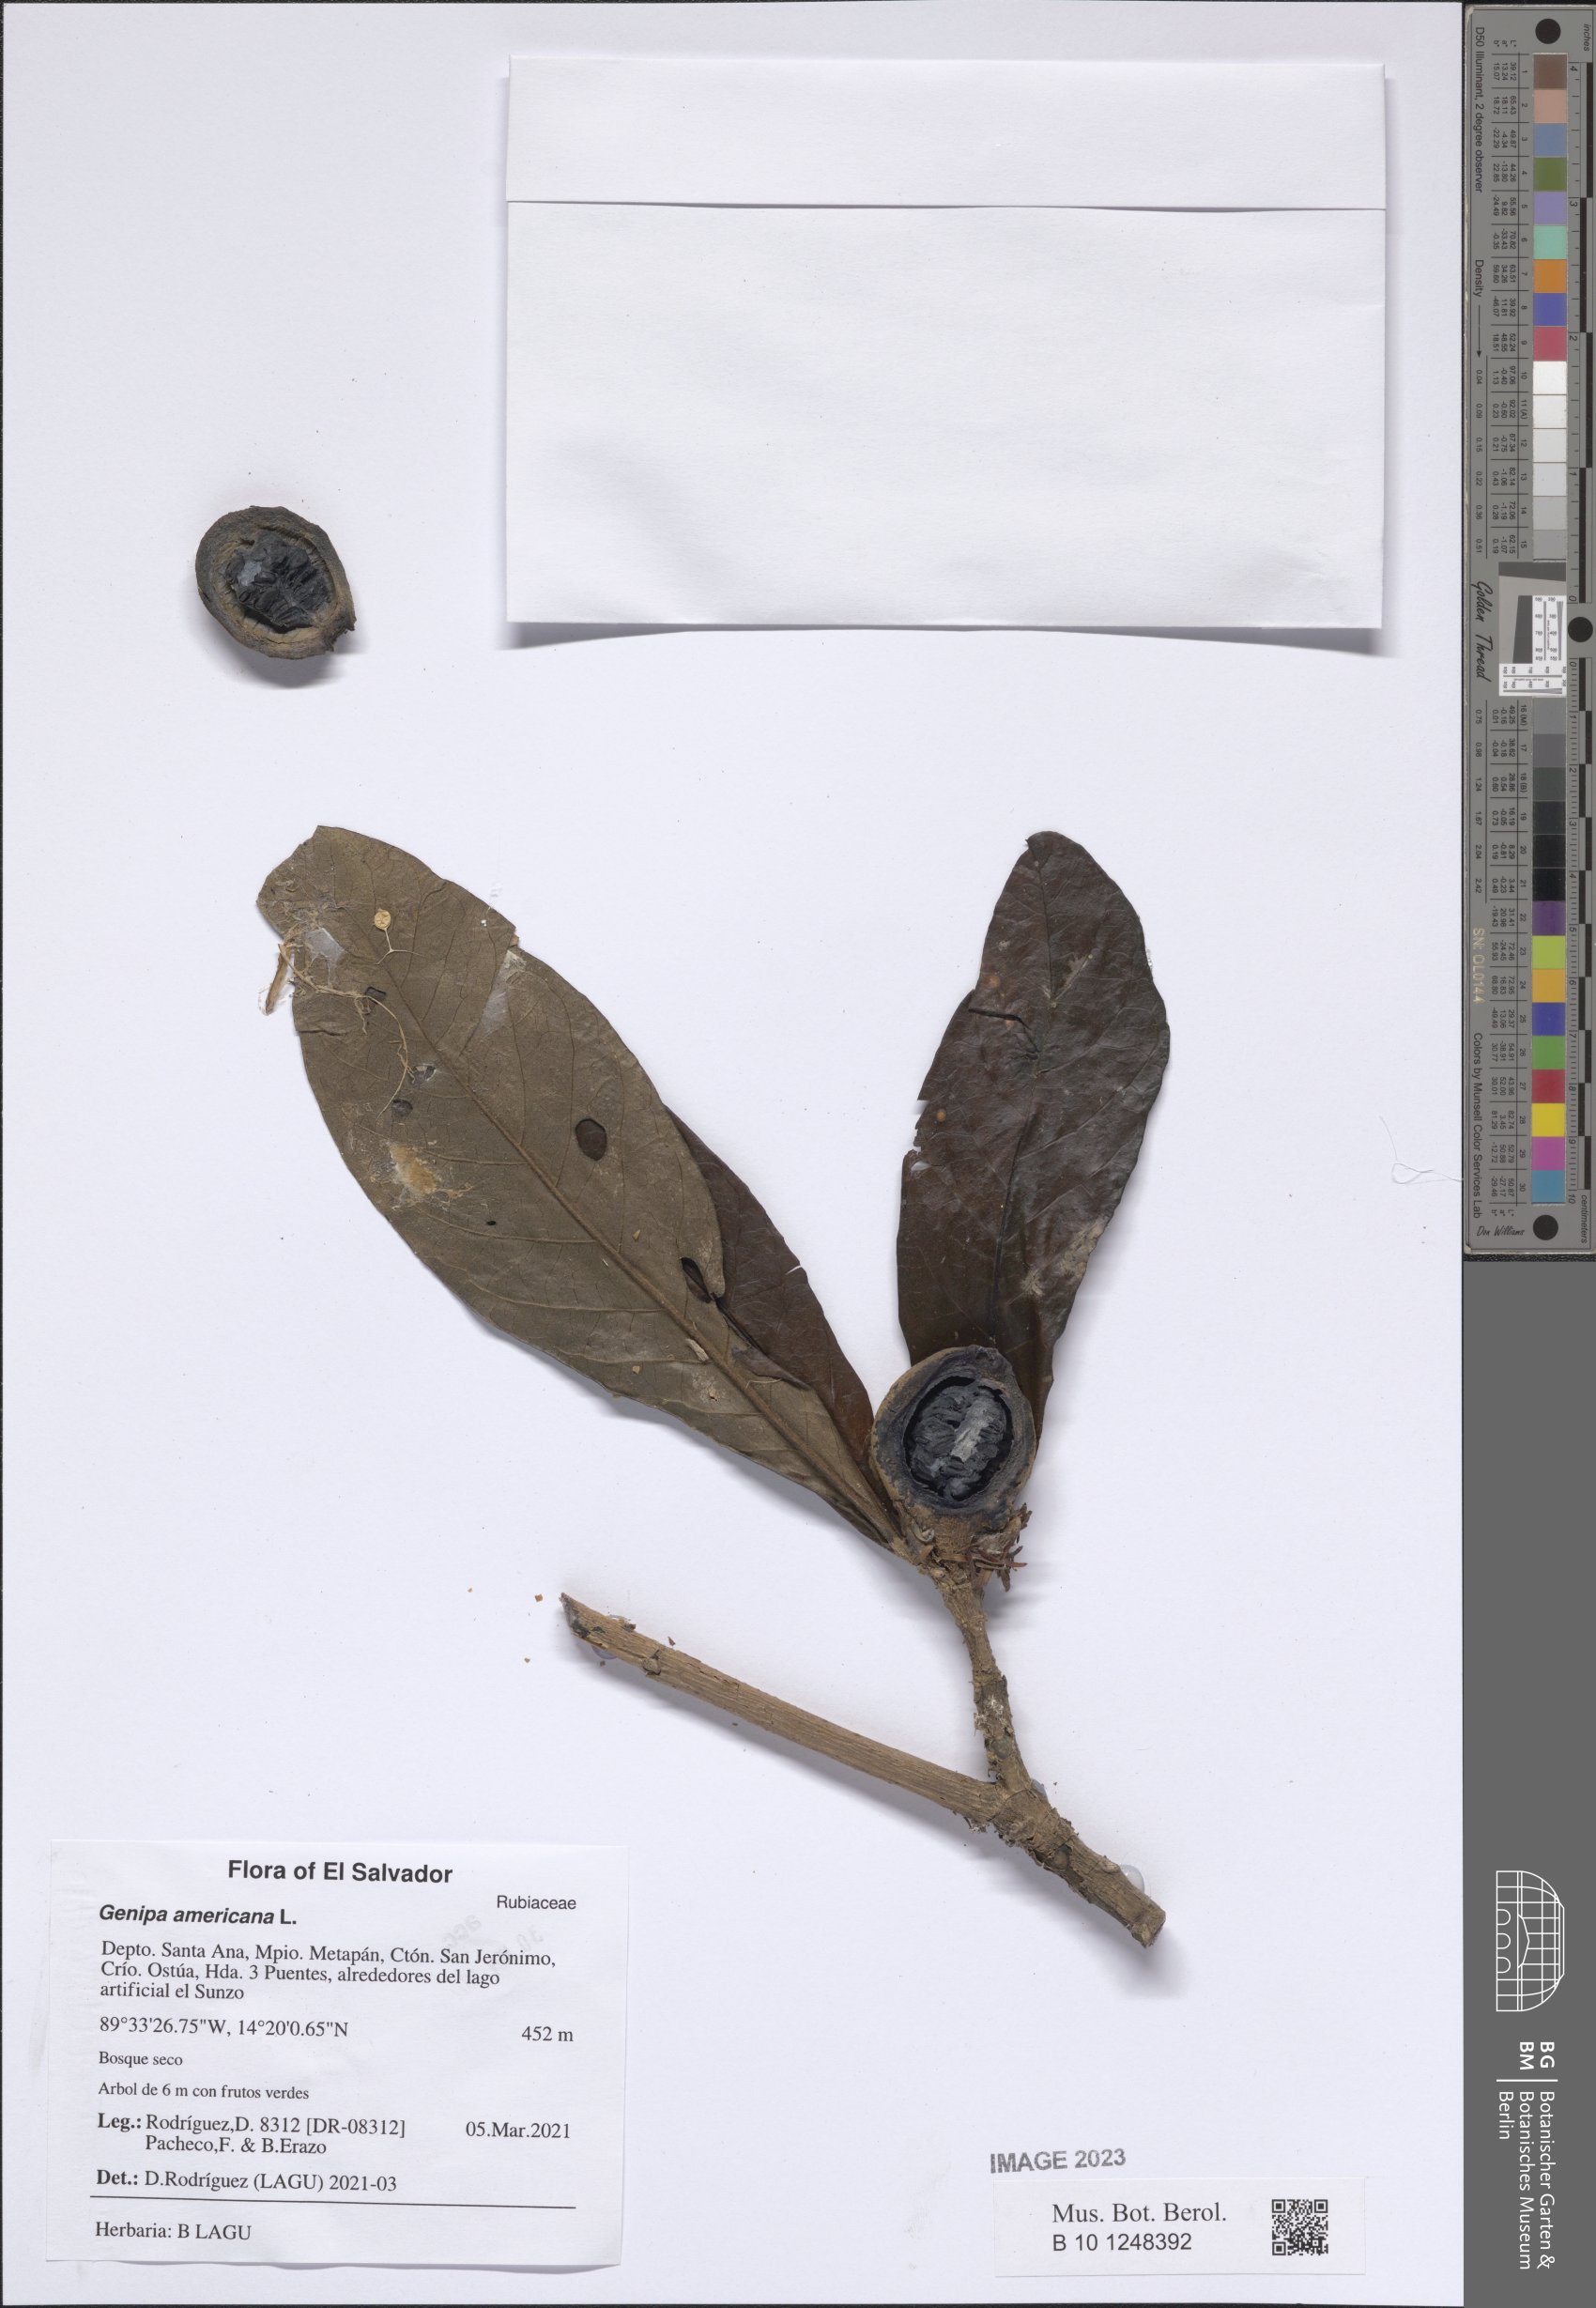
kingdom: Plantae
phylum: Tracheophyta
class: Magnoliopsida
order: Gentianales
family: Rubiaceae
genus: Genipa
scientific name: Genipa americana
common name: Genipap
